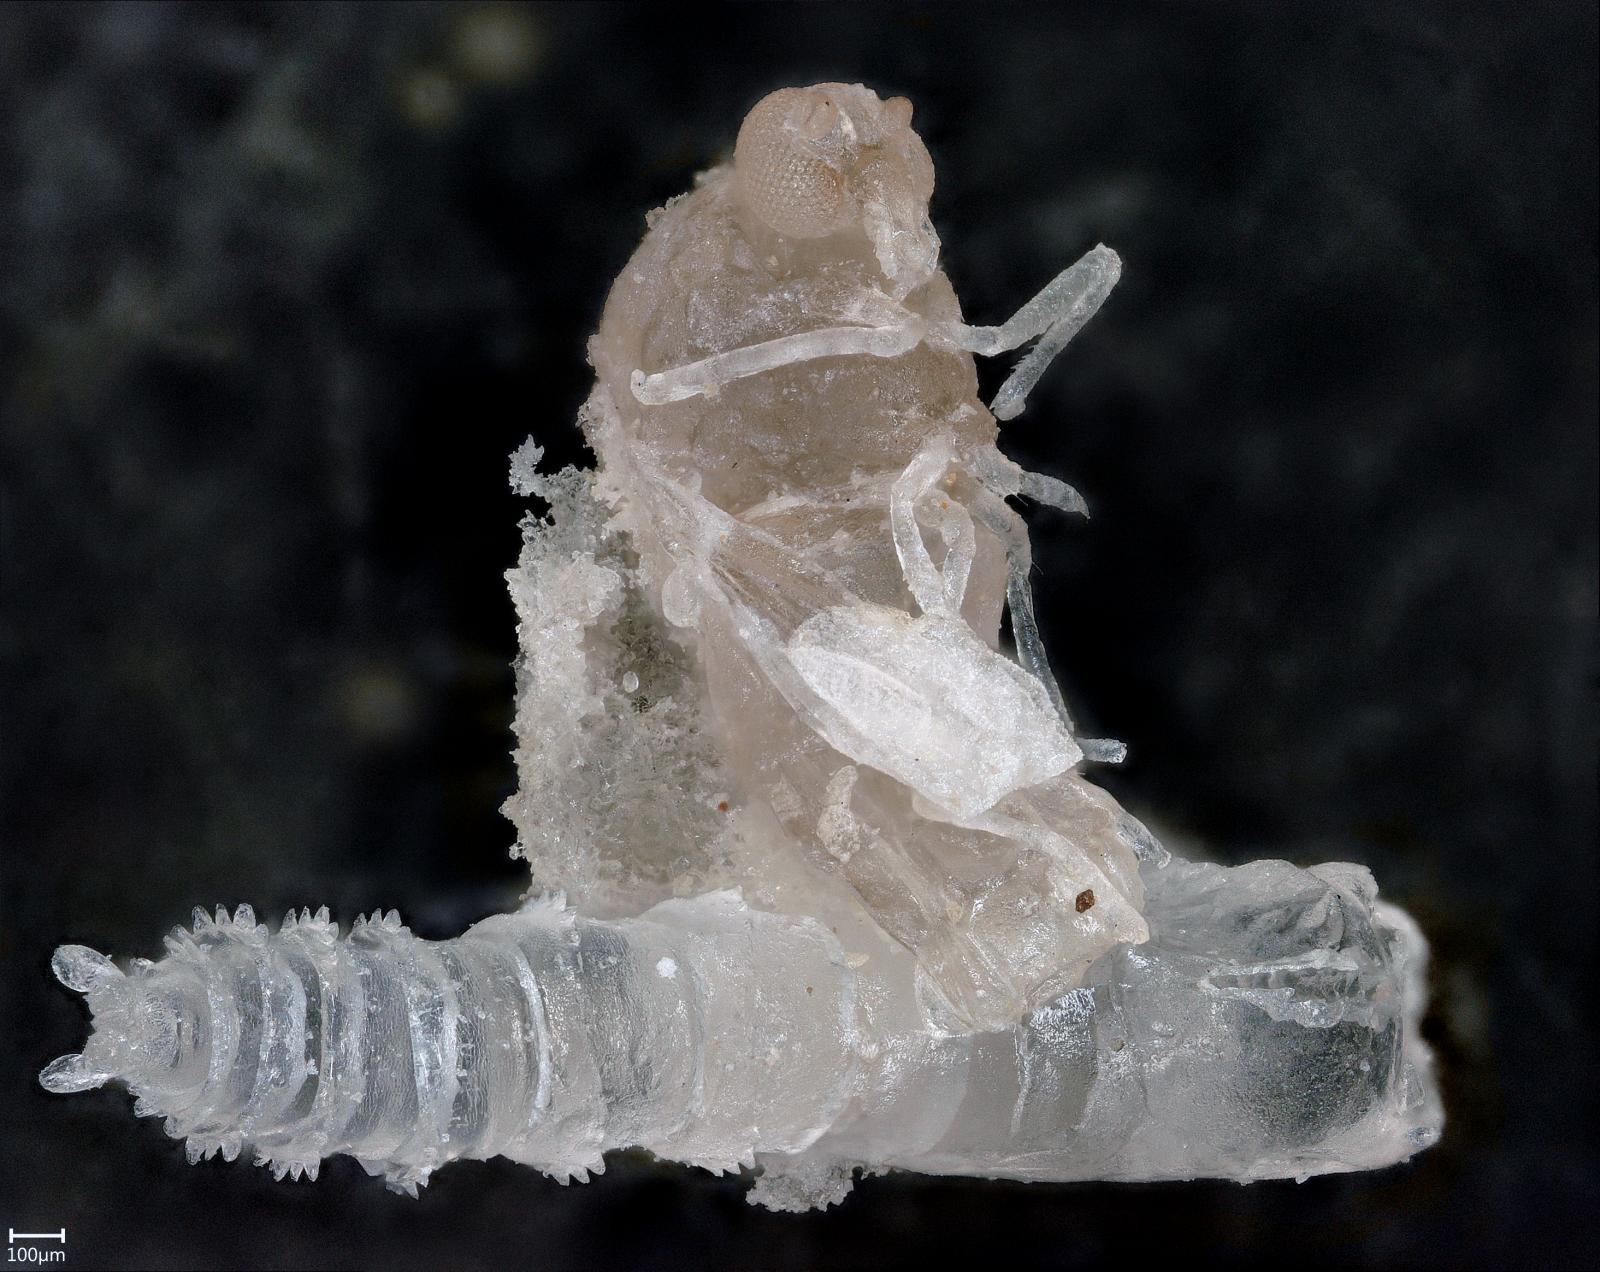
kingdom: Animalia
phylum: Arthropoda
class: Insecta
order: Diptera
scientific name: Diptera
